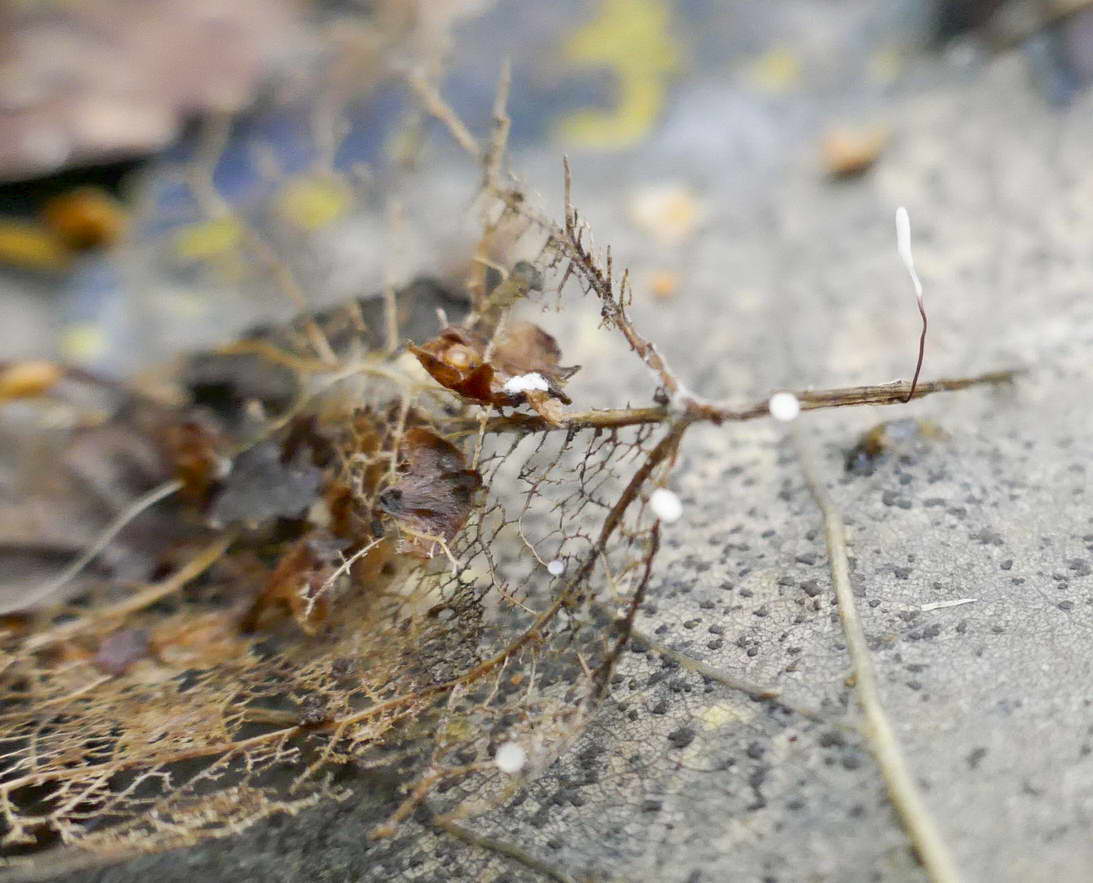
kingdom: Fungi
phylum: Basidiomycota
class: Agaricomycetes
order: Agaricales
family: Typhulaceae
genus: Typhula
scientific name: Typhula erythropus
